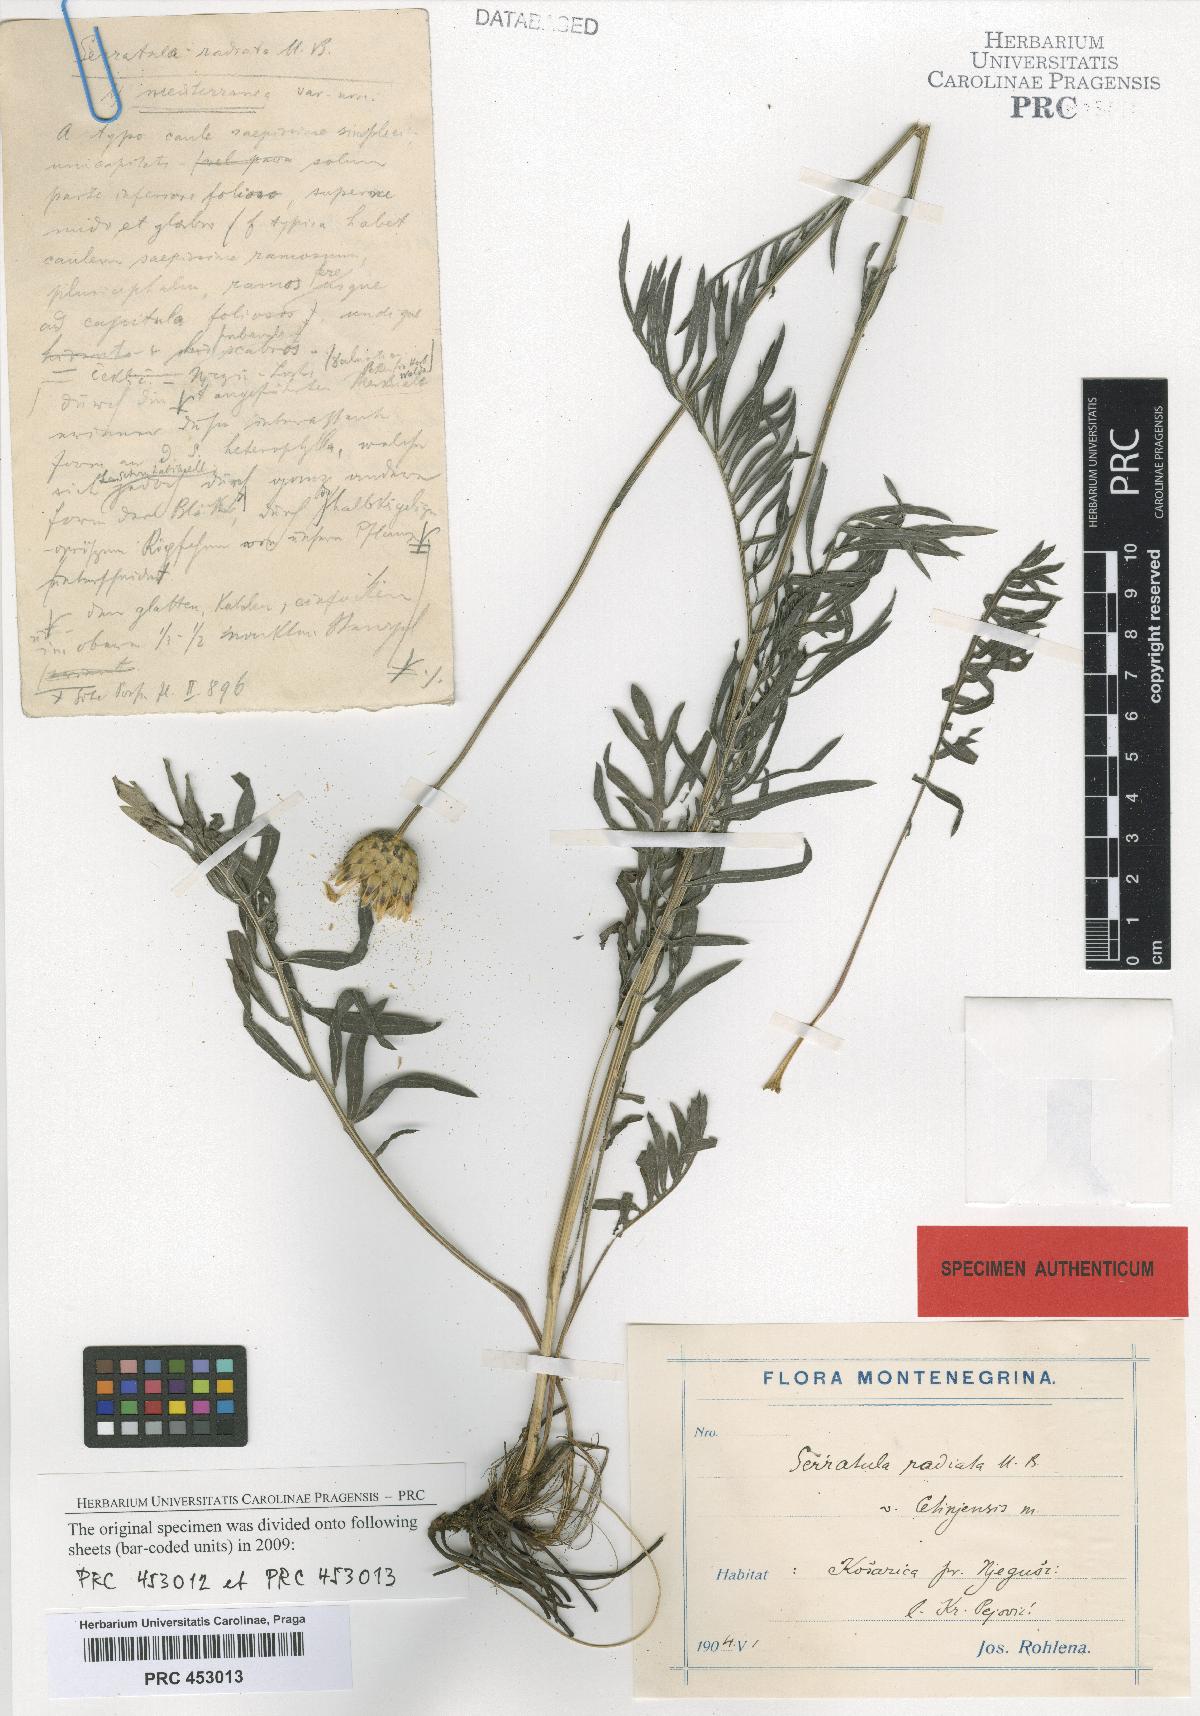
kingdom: Plantae
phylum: Tracheophyta
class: Magnoliopsida
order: Asterales
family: Asteraceae
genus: Klasea
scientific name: Klasea radiata
